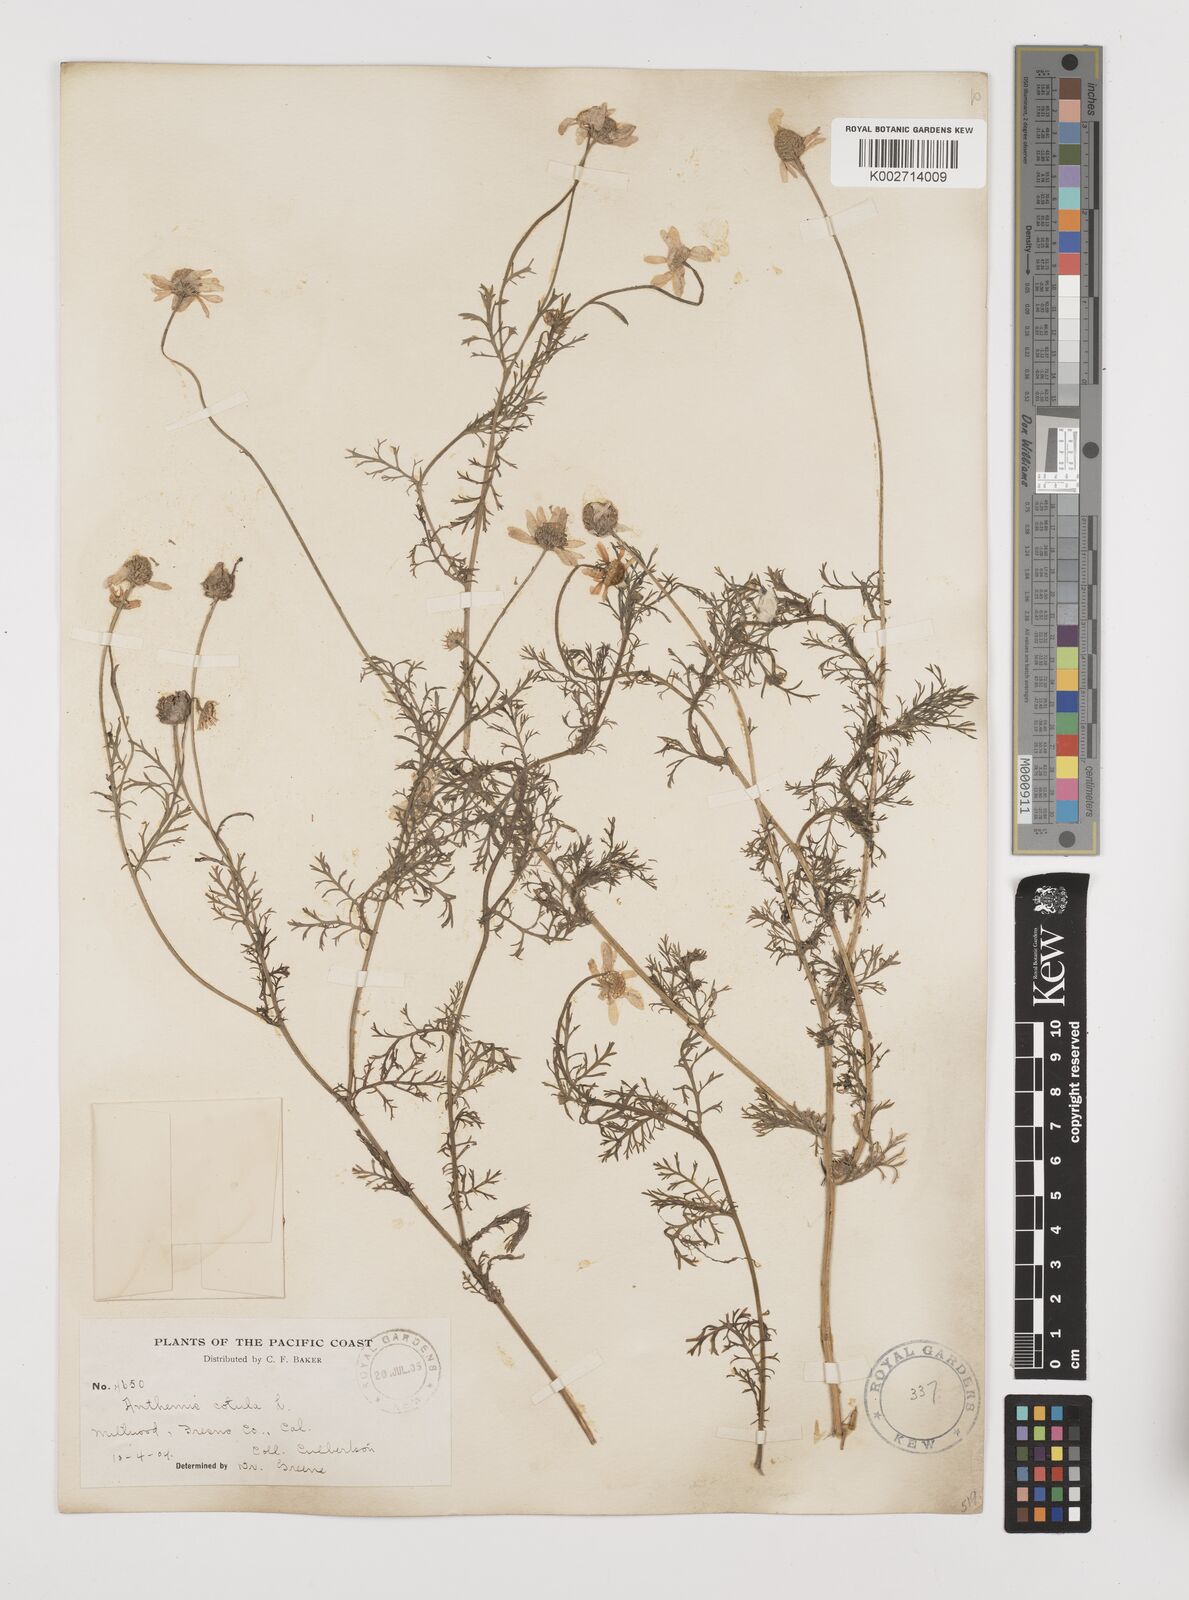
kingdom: Plantae
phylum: Tracheophyta
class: Magnoliopsida
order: Asterales
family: Asteraceae
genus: Anthemis
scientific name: Anthemis cotula
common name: Stinking chamomile
